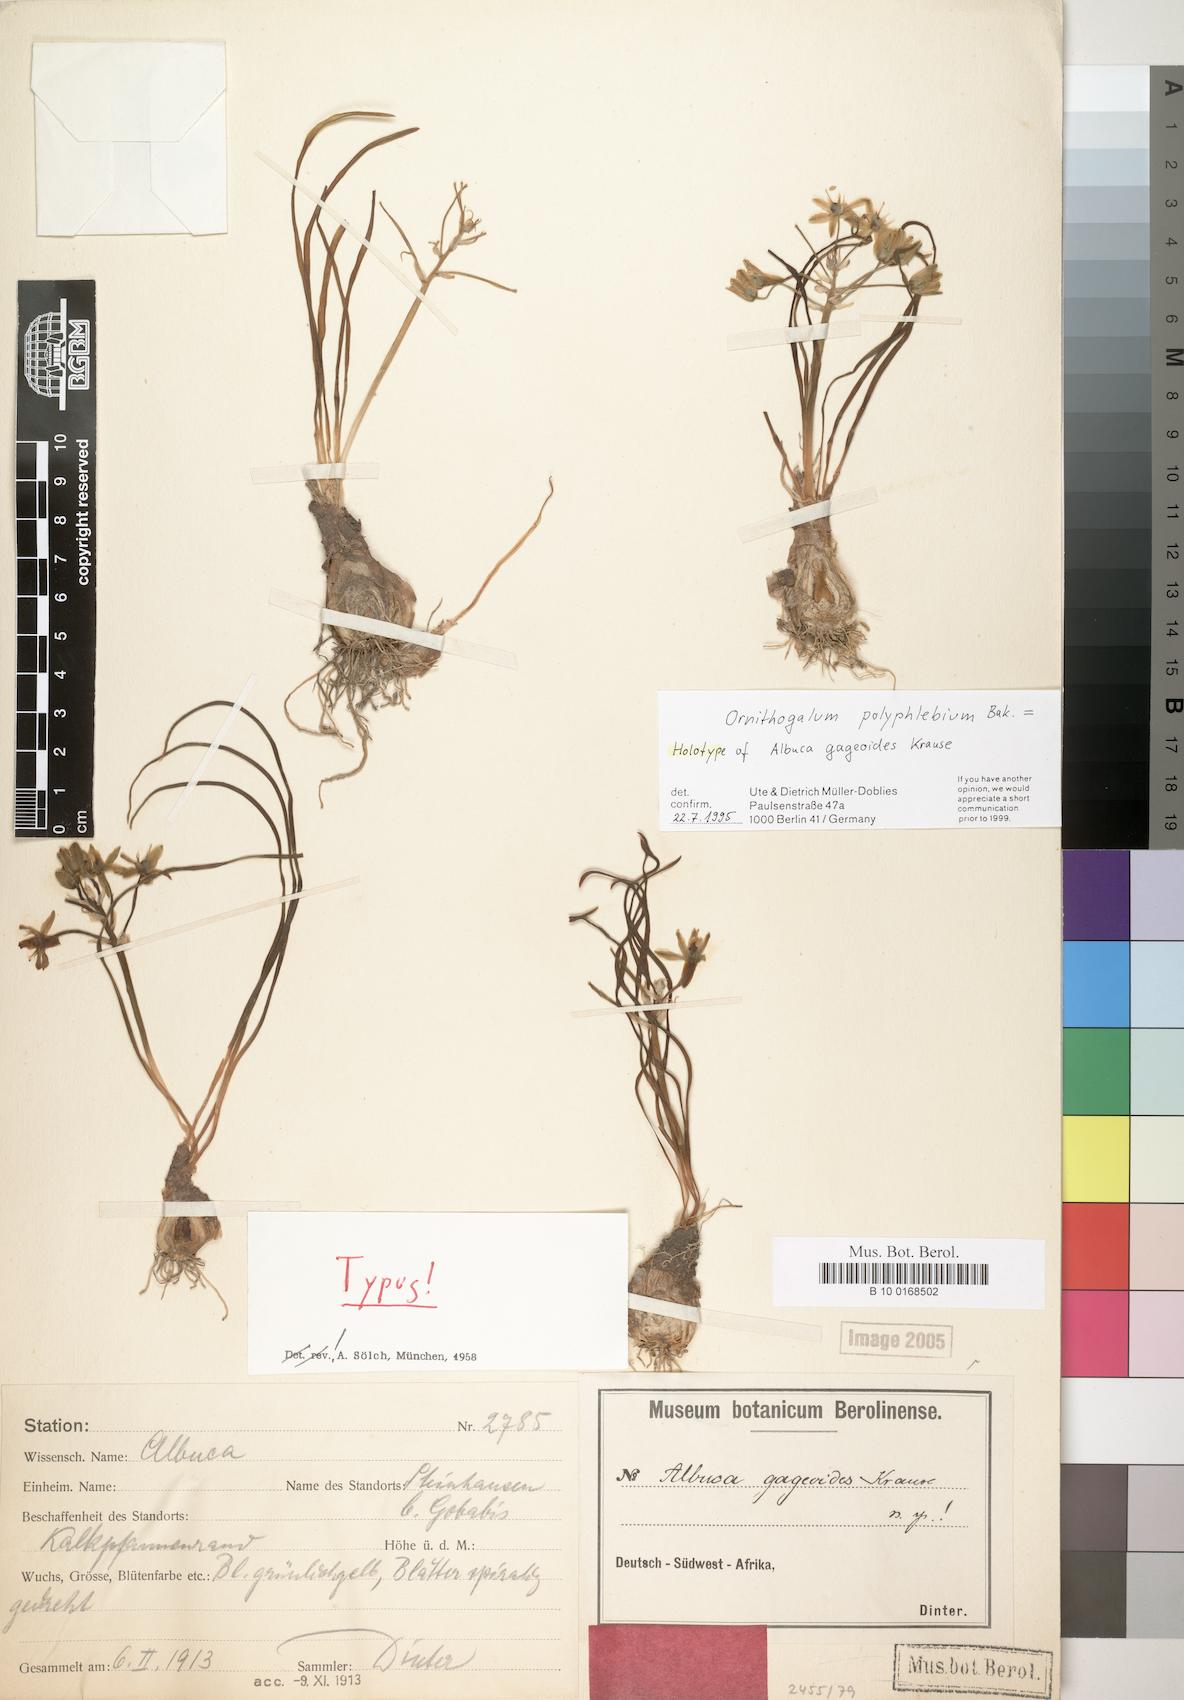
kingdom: Plantae
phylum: Tracheophyta
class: Liliopsida
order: Asparagales
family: Asparagaceae
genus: Albuca
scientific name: Albuca prasina
